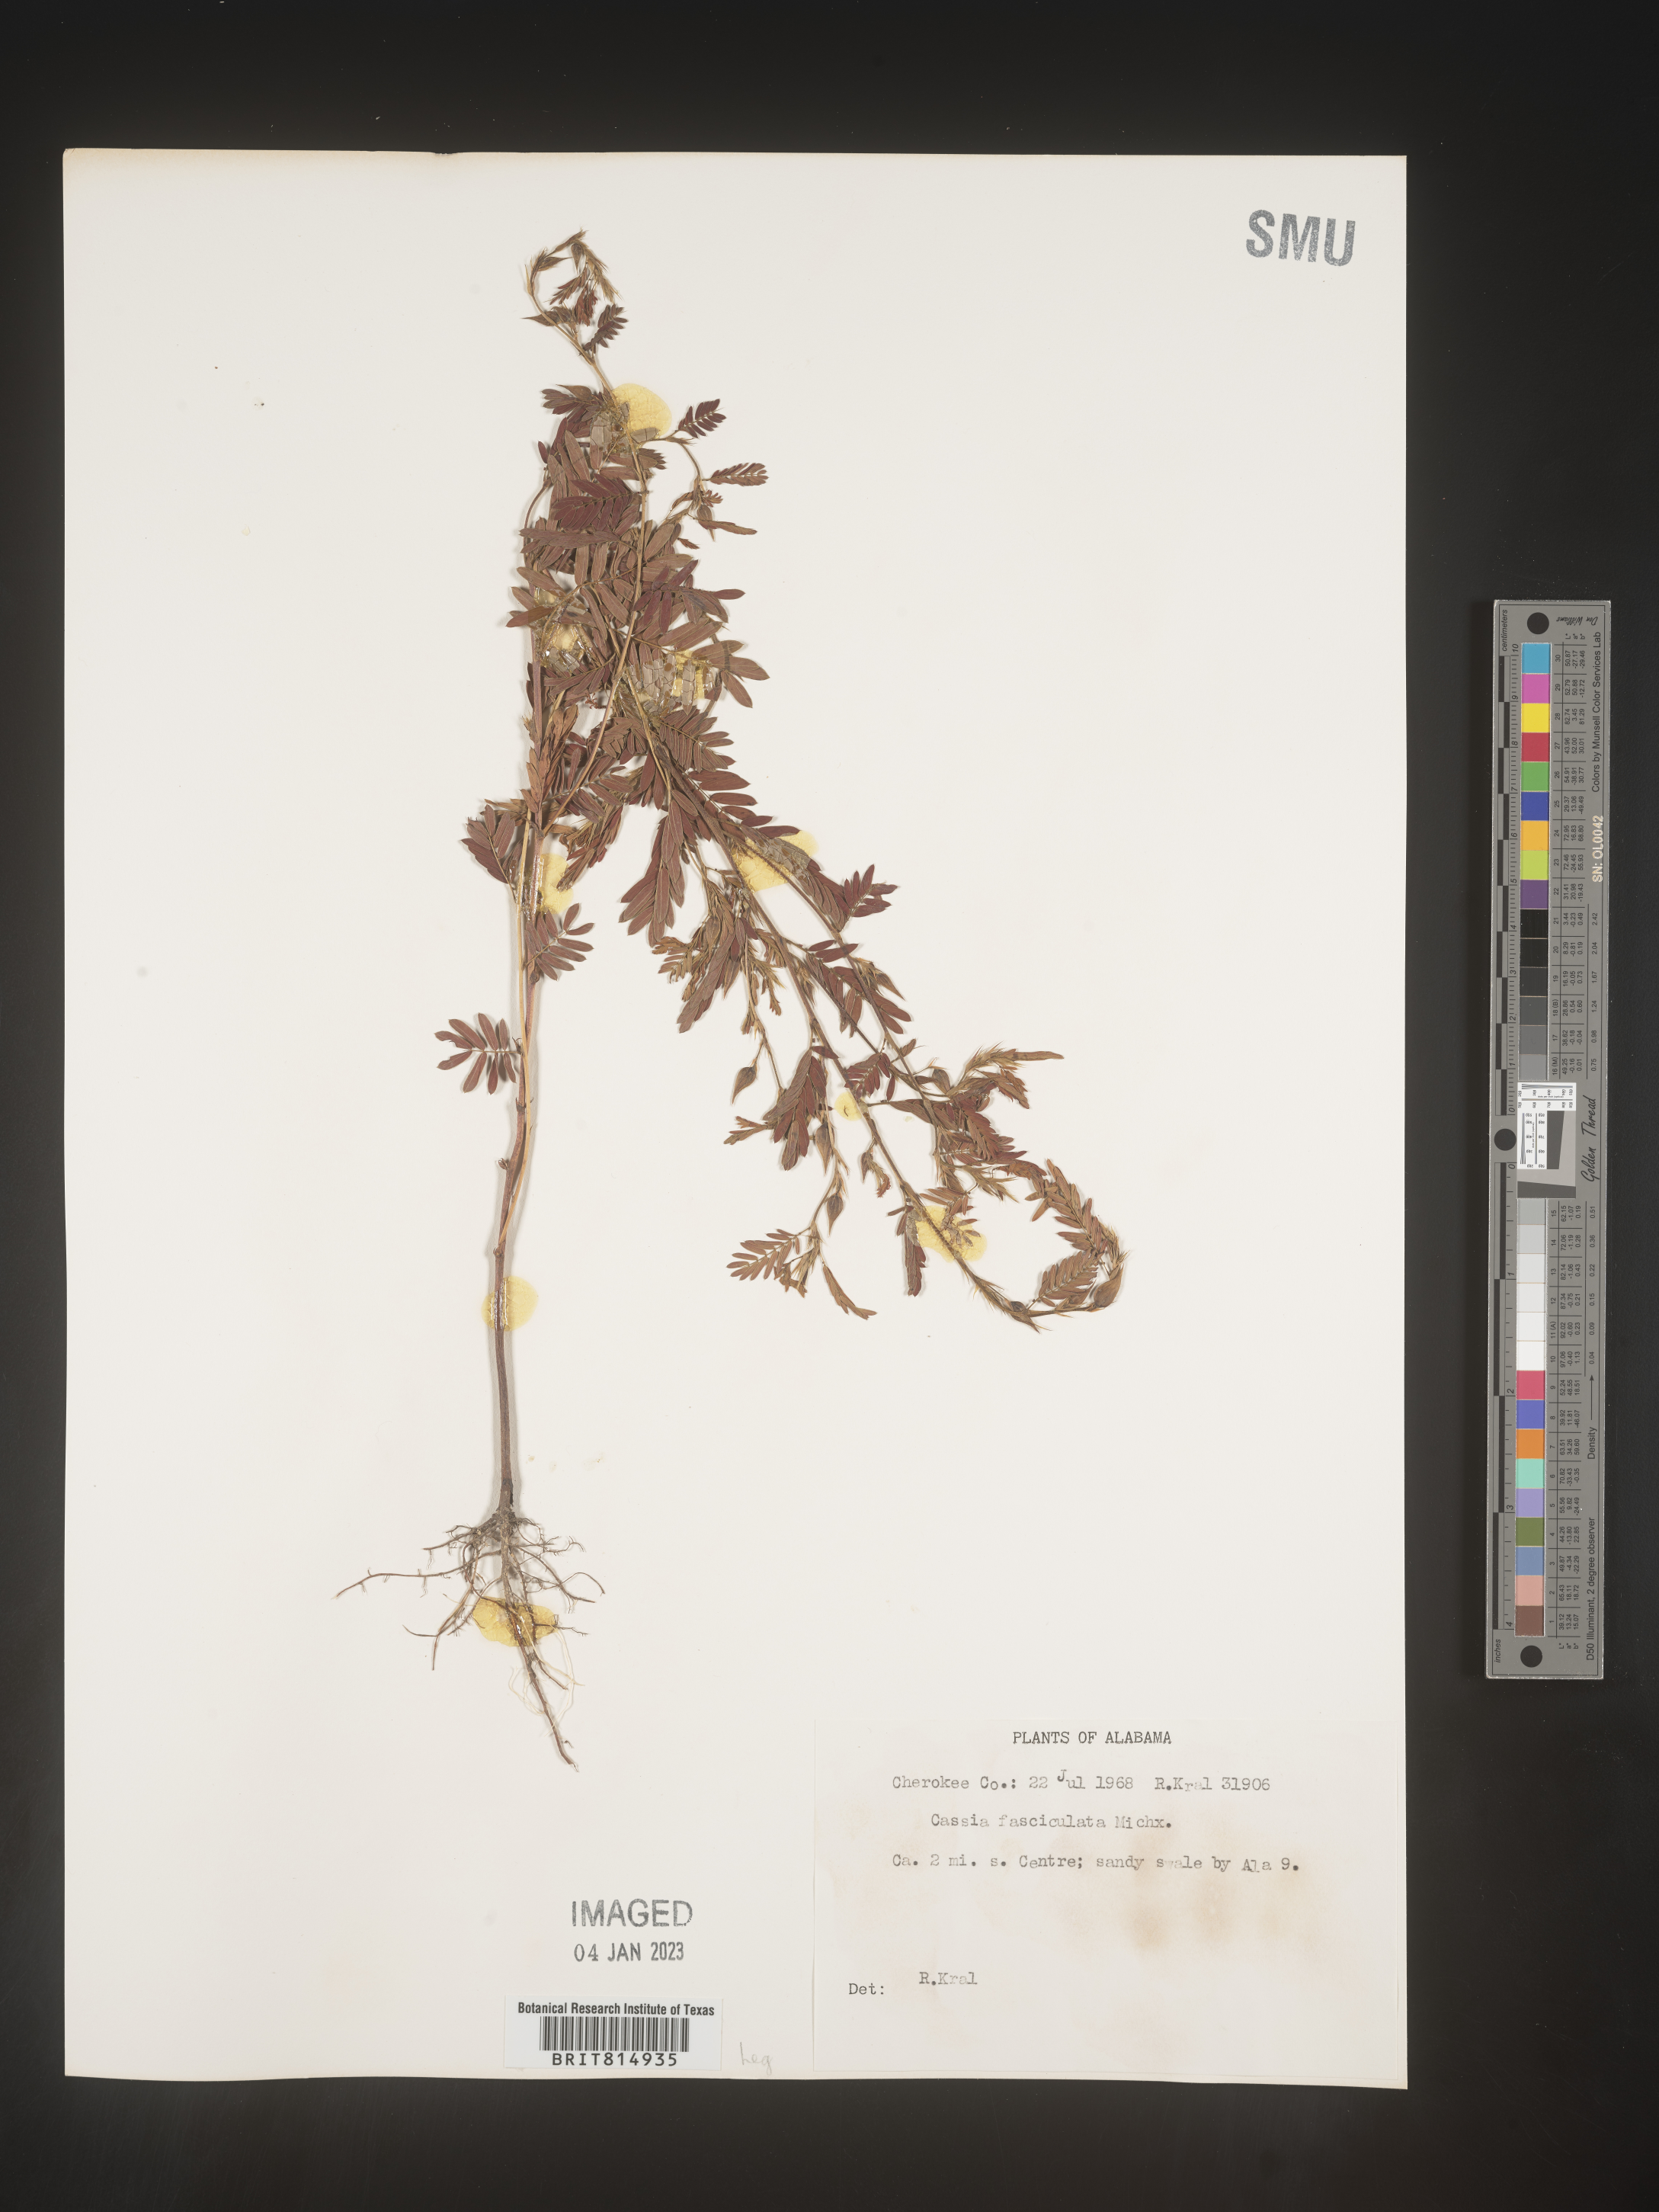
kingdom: Plantae
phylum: Tracheophyta
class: Magnoliopsida
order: Fabales
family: Fabaceae
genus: Chamaecrista
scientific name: Chamaecrista fasciculata
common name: Golden cassia
